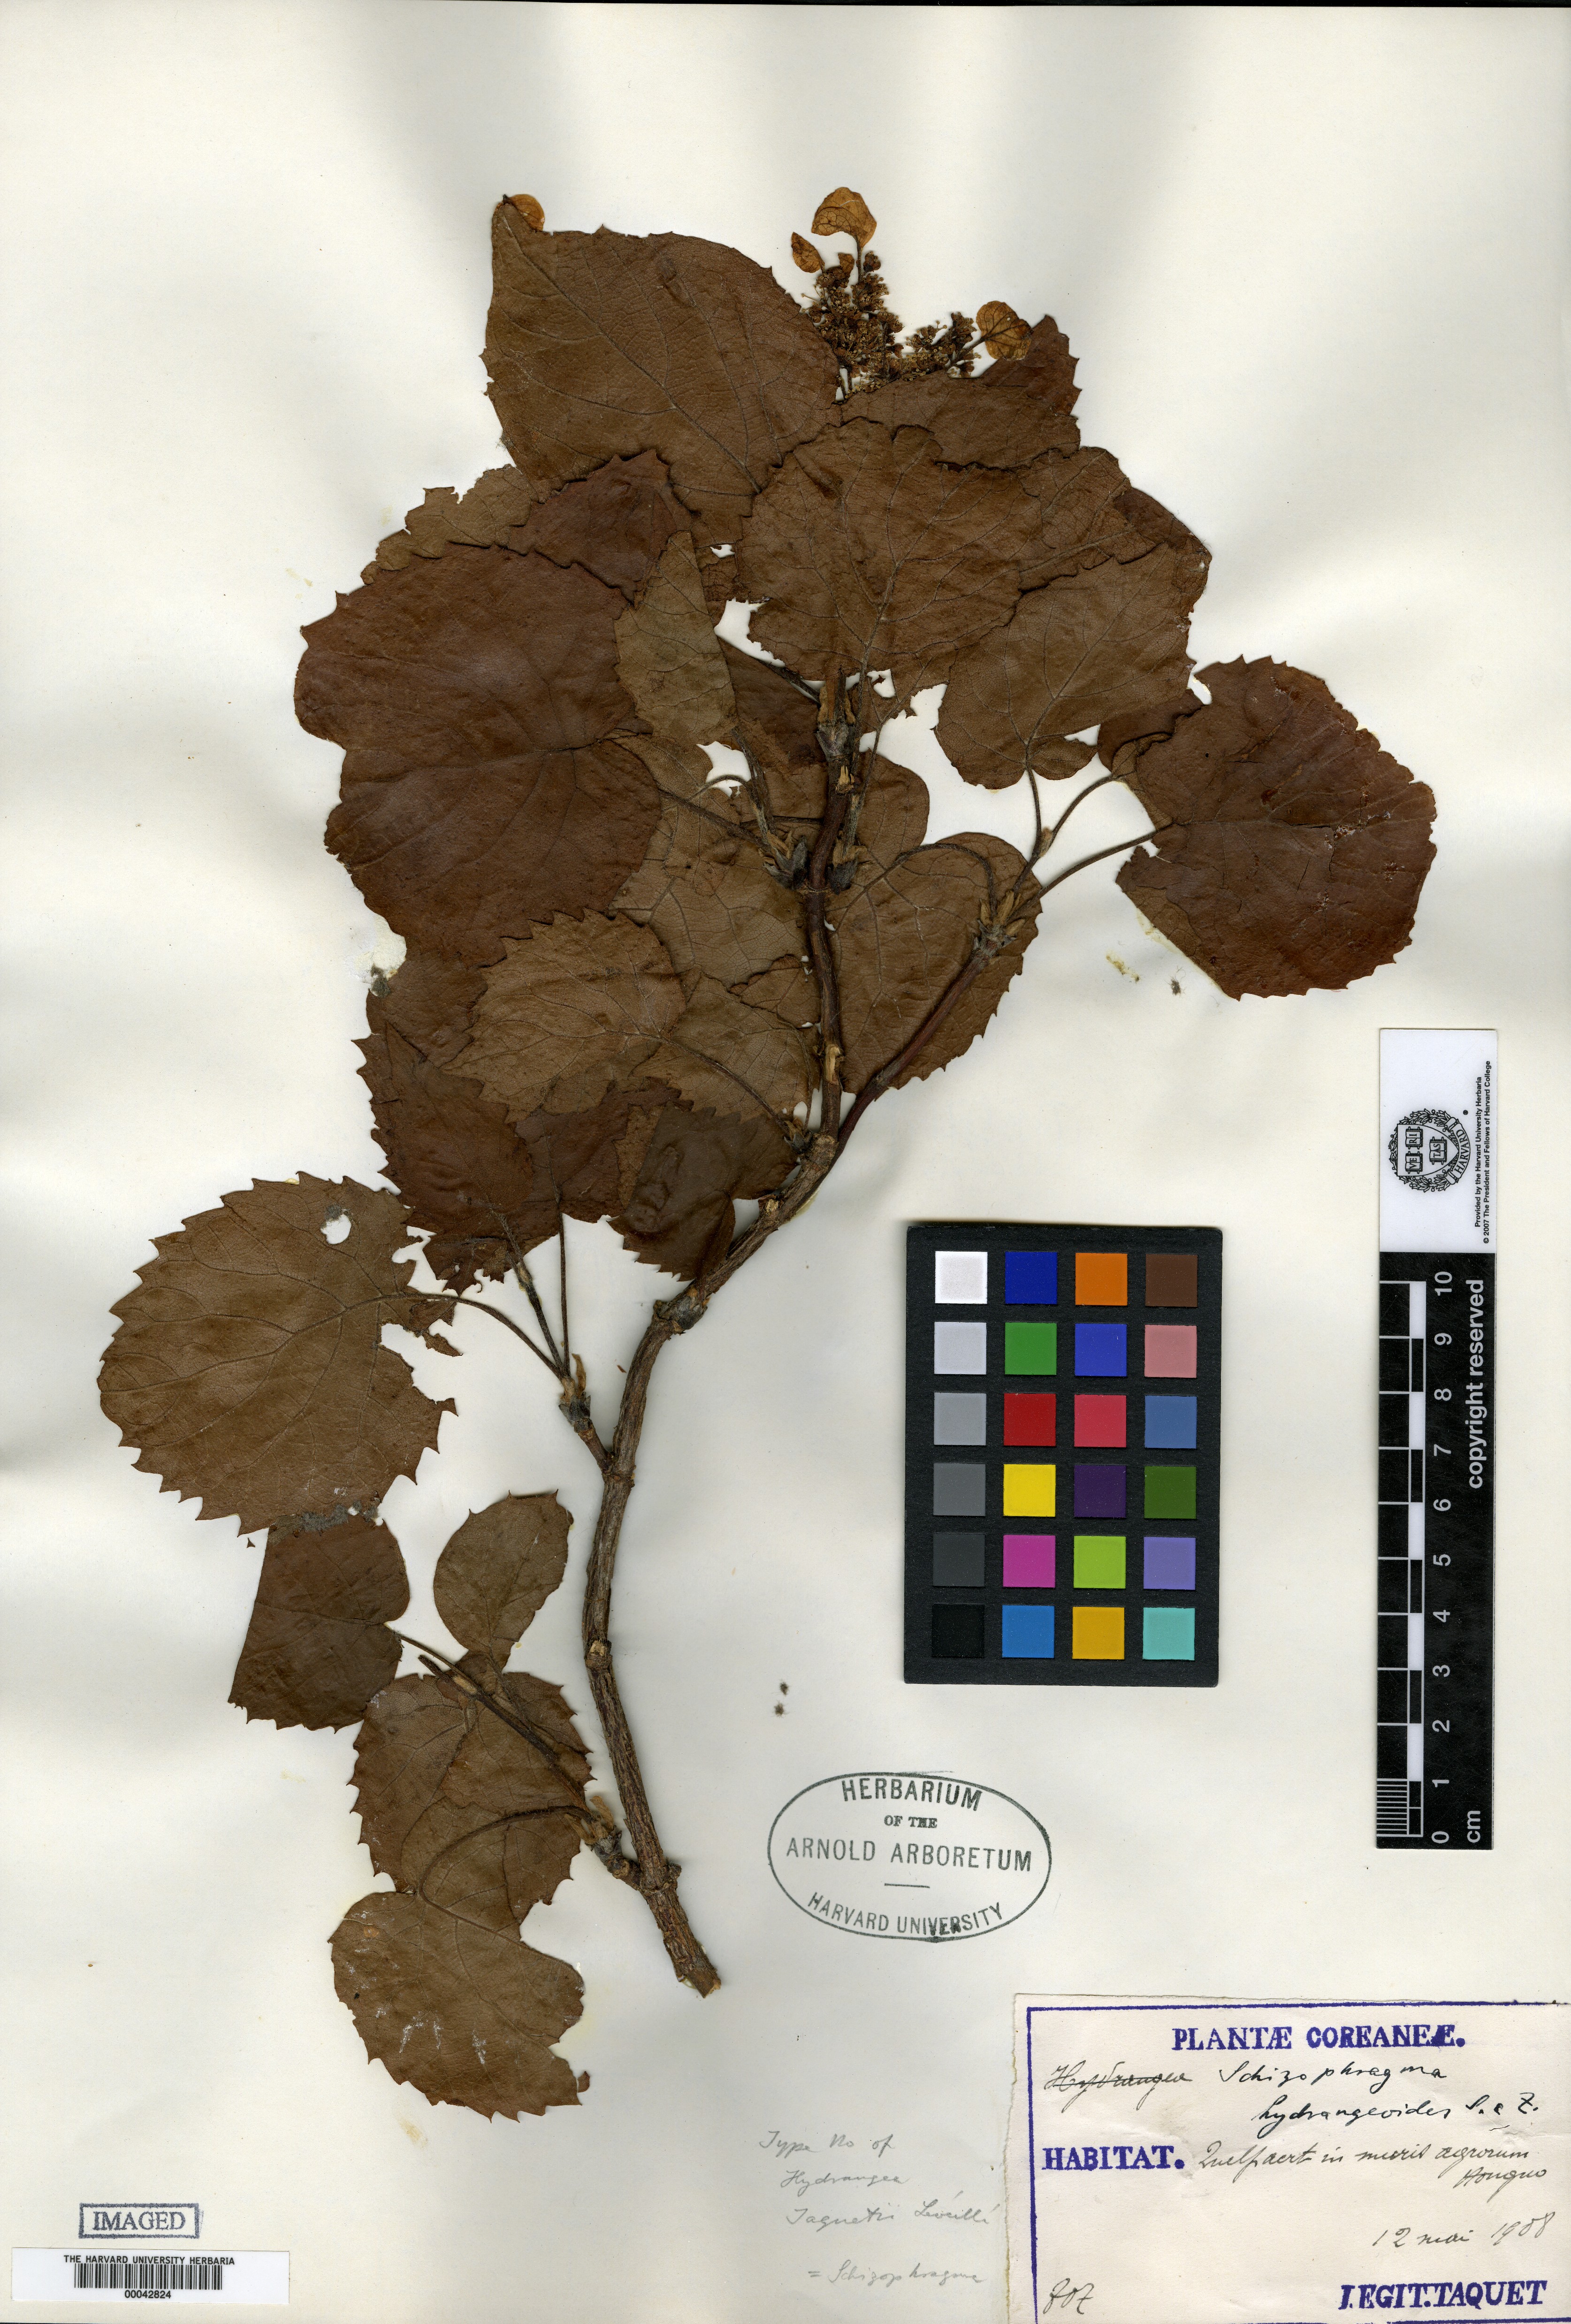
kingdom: Plantae
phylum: Tracheophyta
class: Magnoliopsida
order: Cornales
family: Hydrangeaceae
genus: Hydrangea
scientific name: Hydrangea hydrangeoides
